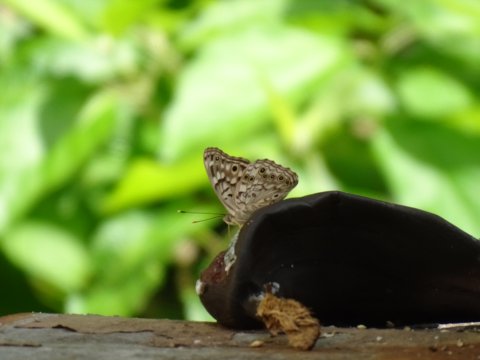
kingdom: Animalia
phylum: Arthropoda
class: Insecta
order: Lepidoptera
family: Nymphalidae
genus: Asterocampa
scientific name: Asterocampa celtis
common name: Hackberry Emperor
